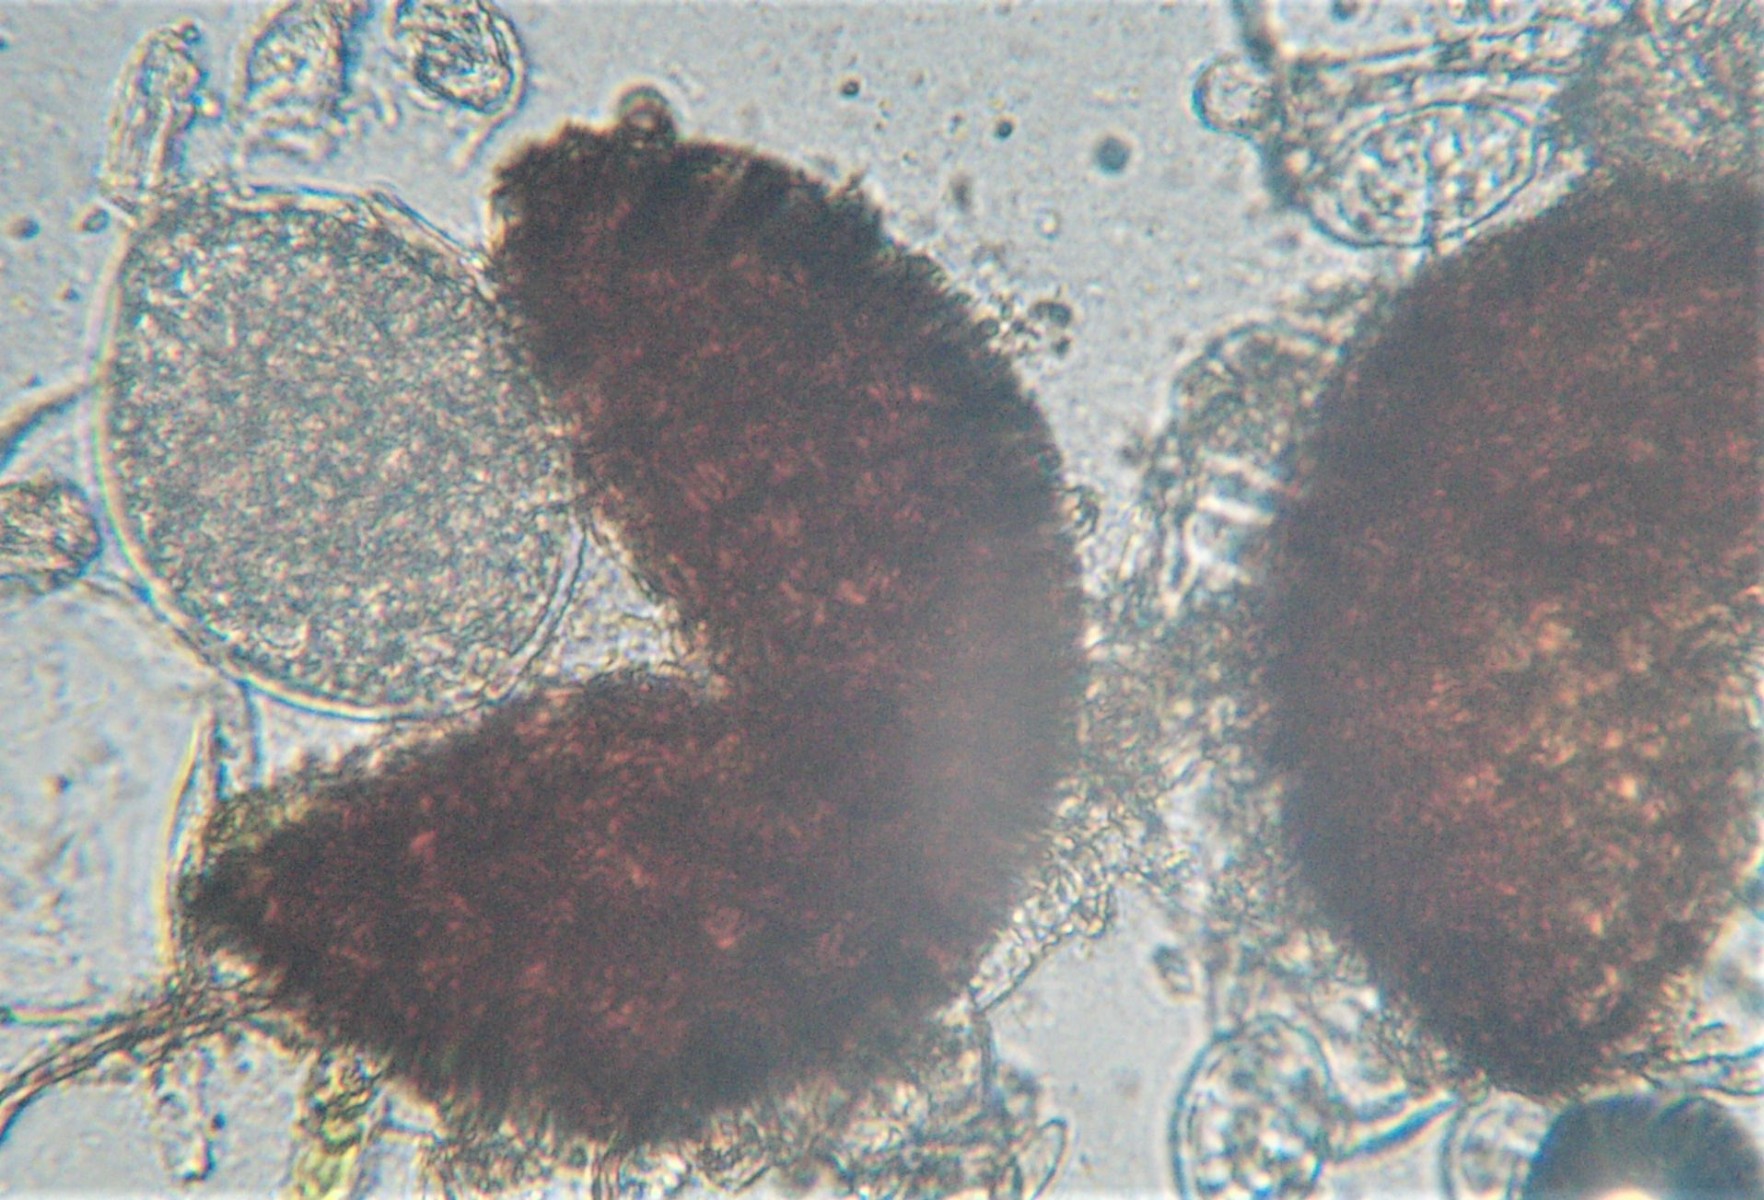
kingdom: Fungi
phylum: Ascomycota
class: Leotiomycetes
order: Helotiales
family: Erysiphaceae
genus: Podosphaera
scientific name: Podosphaera aphanis
